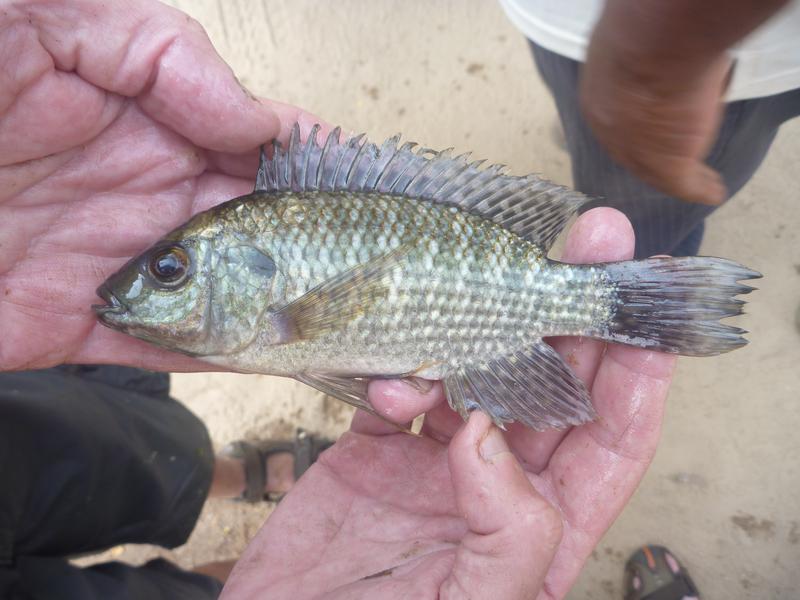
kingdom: Animalia
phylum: Chordata
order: Perciformes
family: Cichlidae
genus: Oreochromis
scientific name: Oreochromis leucostictus
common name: Blue spotted tilapia
